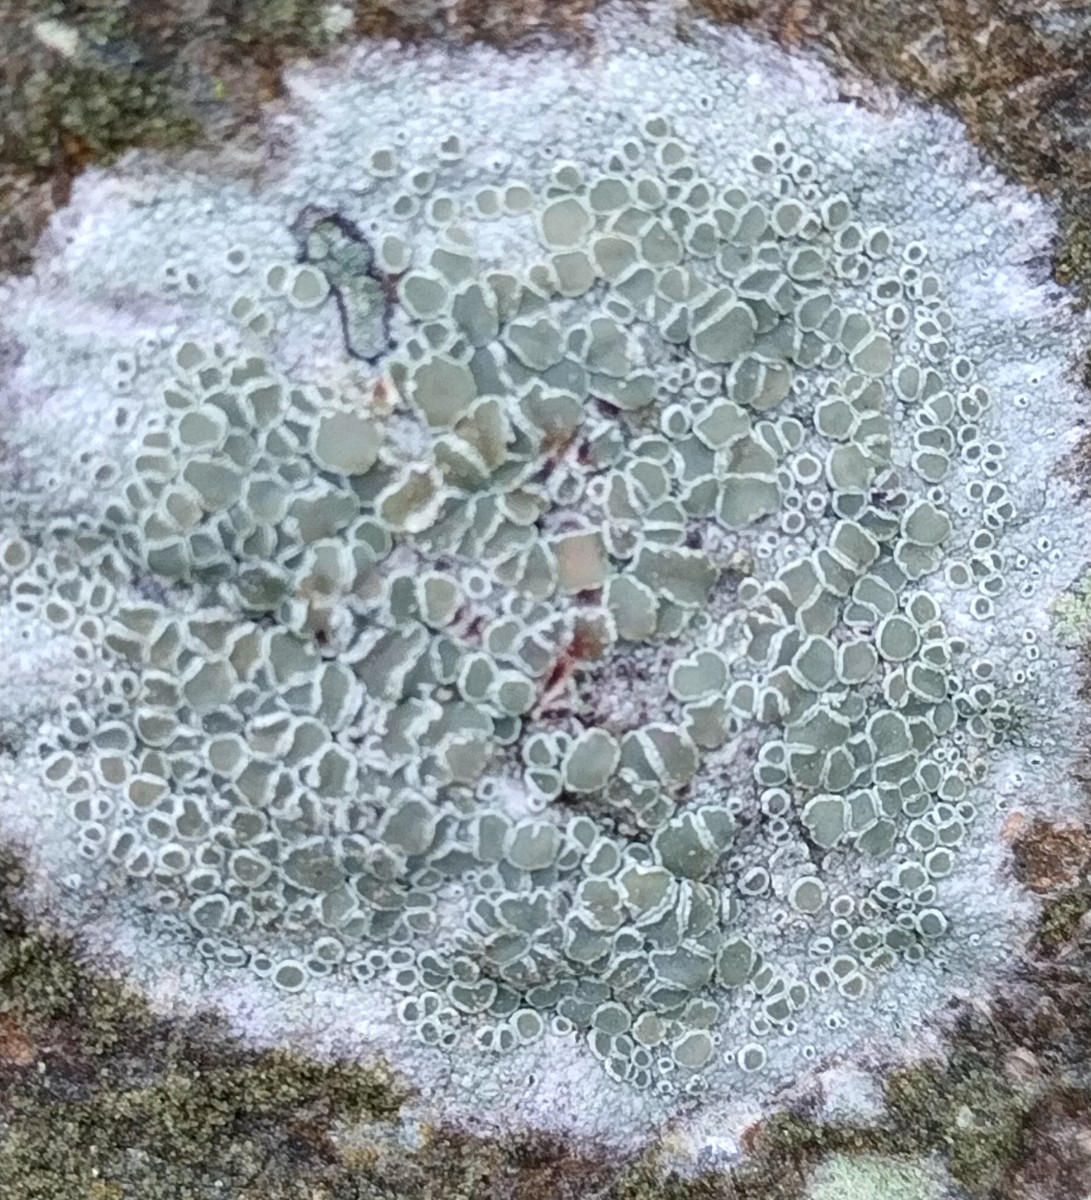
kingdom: Fungi
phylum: Ascomycota
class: Lecanoromycetes
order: Lecanorales
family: Lecanoraceae
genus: Lecanora
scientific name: Lecanora chlarotera
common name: brun kantskivelav
